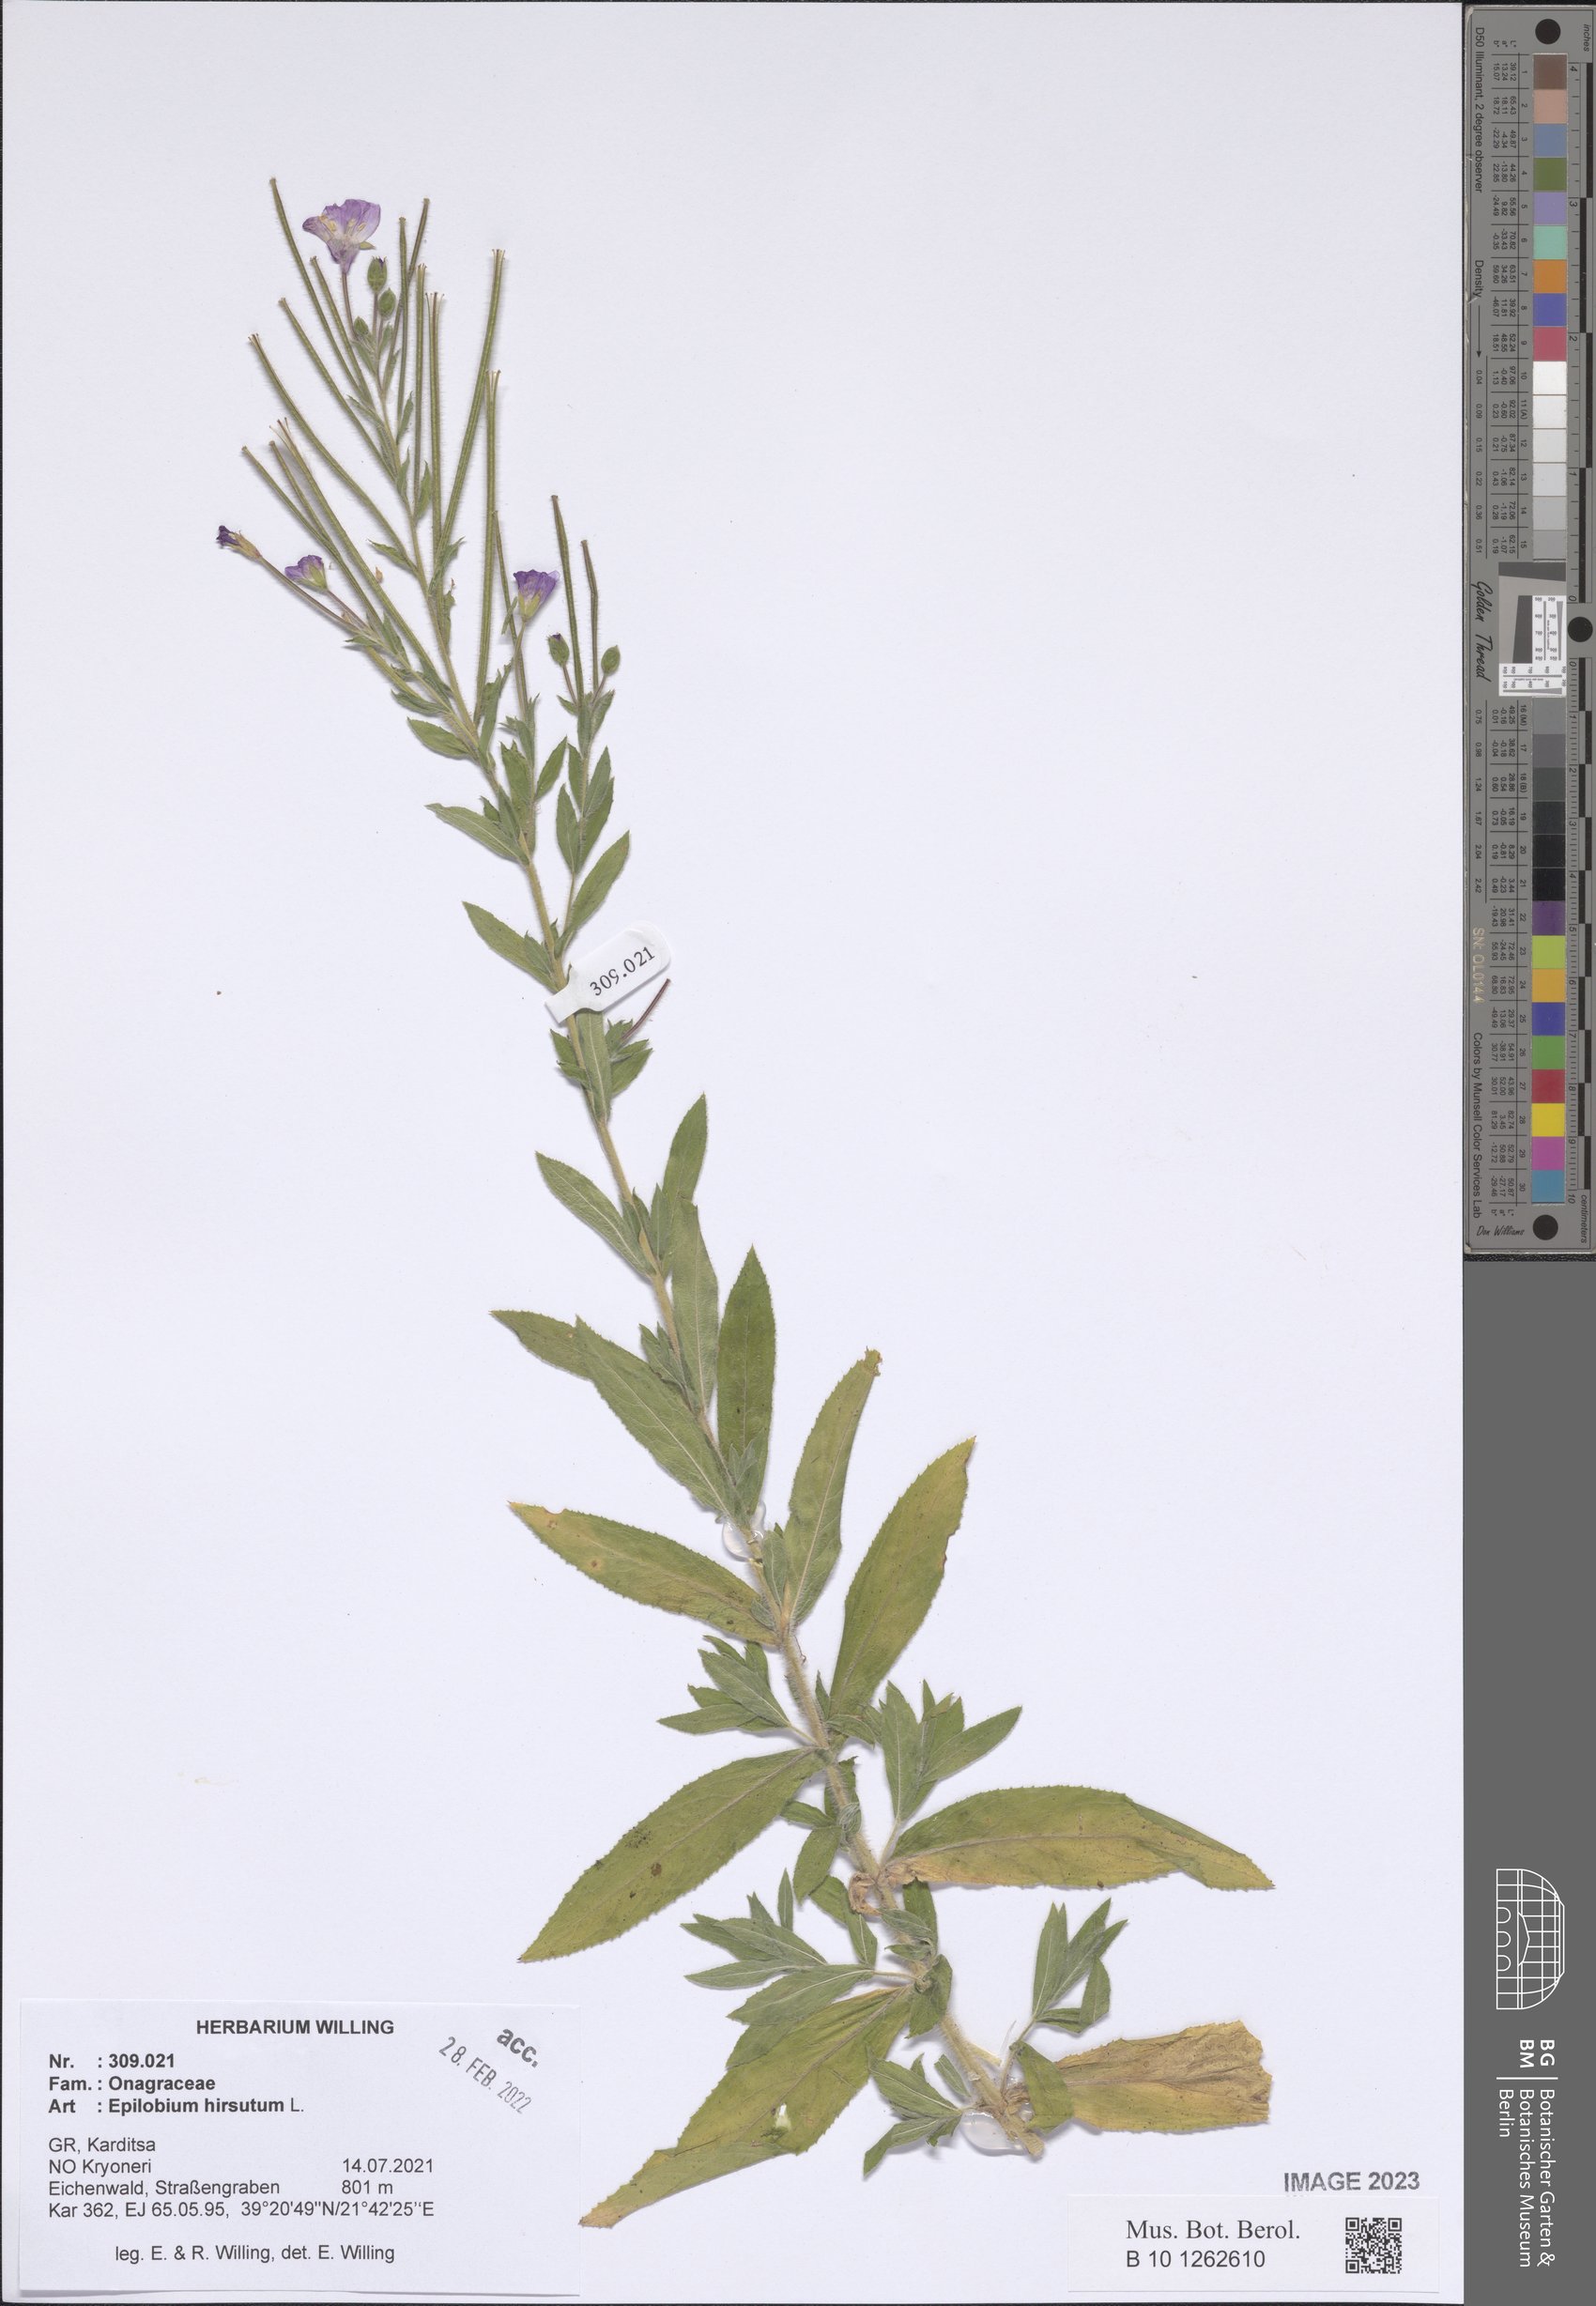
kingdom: Plantae
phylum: Tracheophyta
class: Magnoliopsida
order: Myrtales
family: Onagraceae
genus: Epilobium
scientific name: Epilobium hirsutum
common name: Great willowherb
